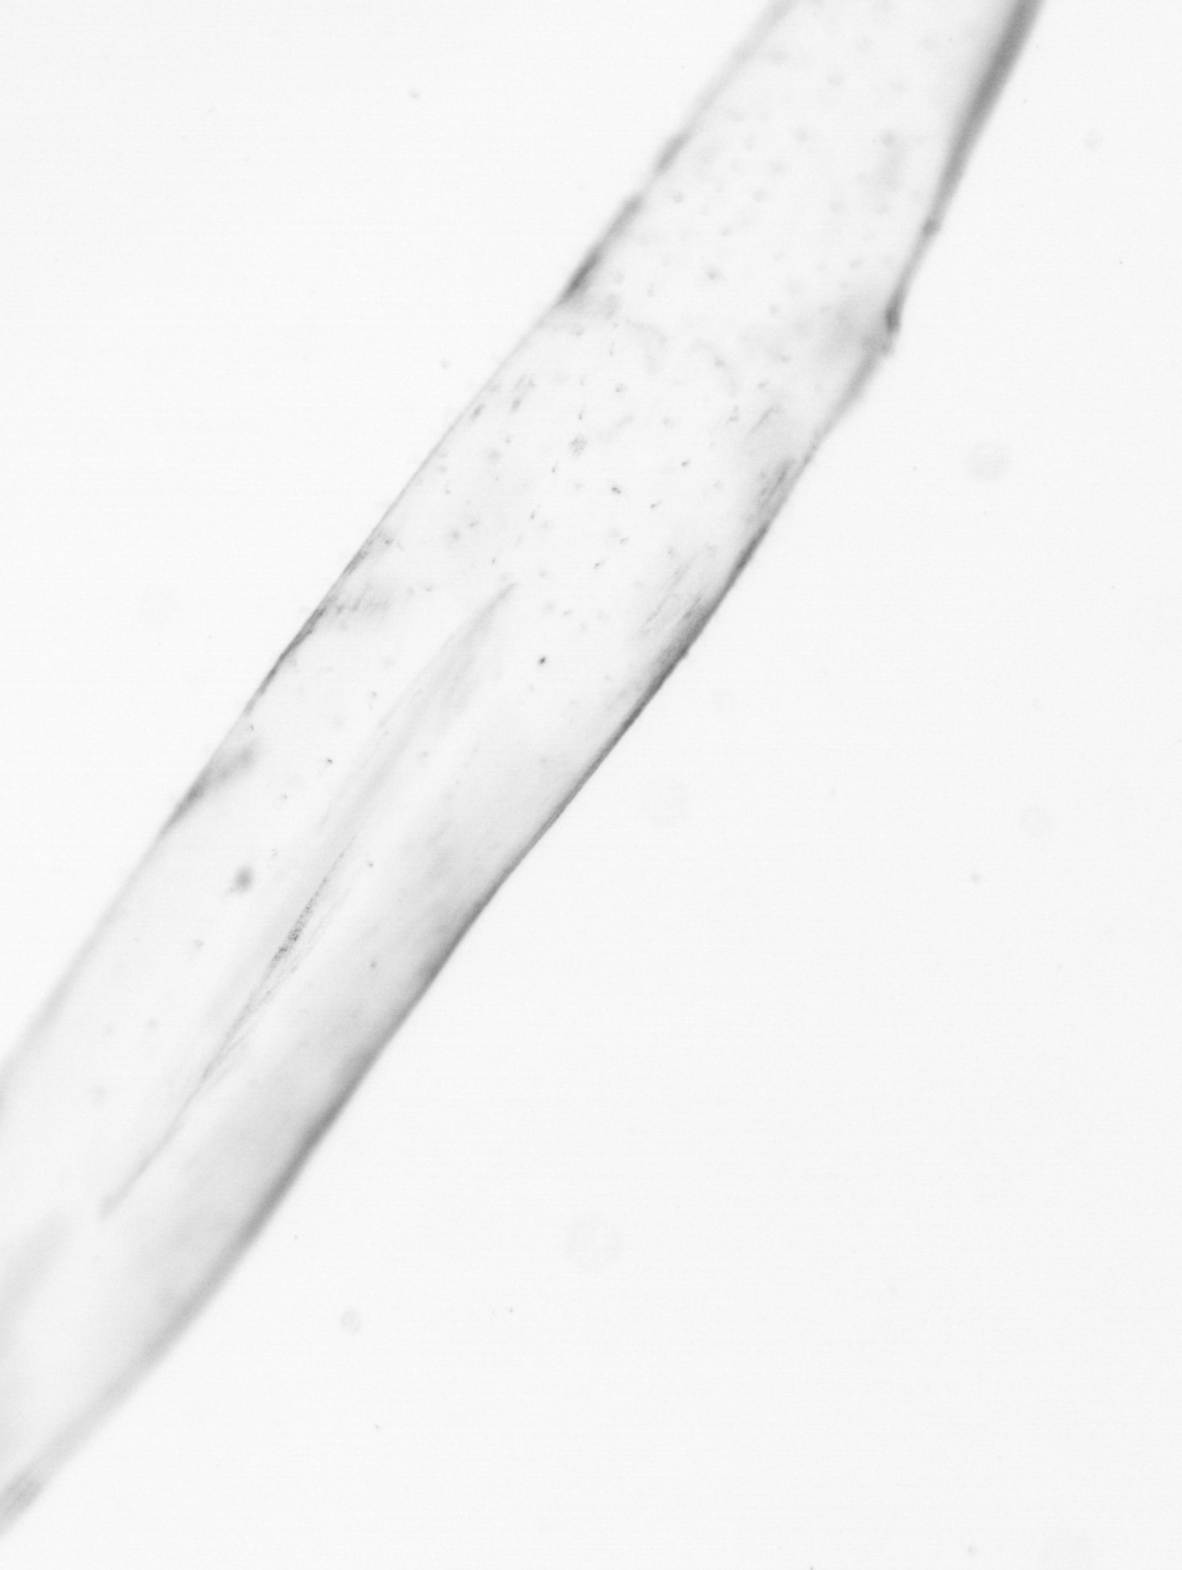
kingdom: Animalia
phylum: Chaetognatha
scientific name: Chaetognatha
